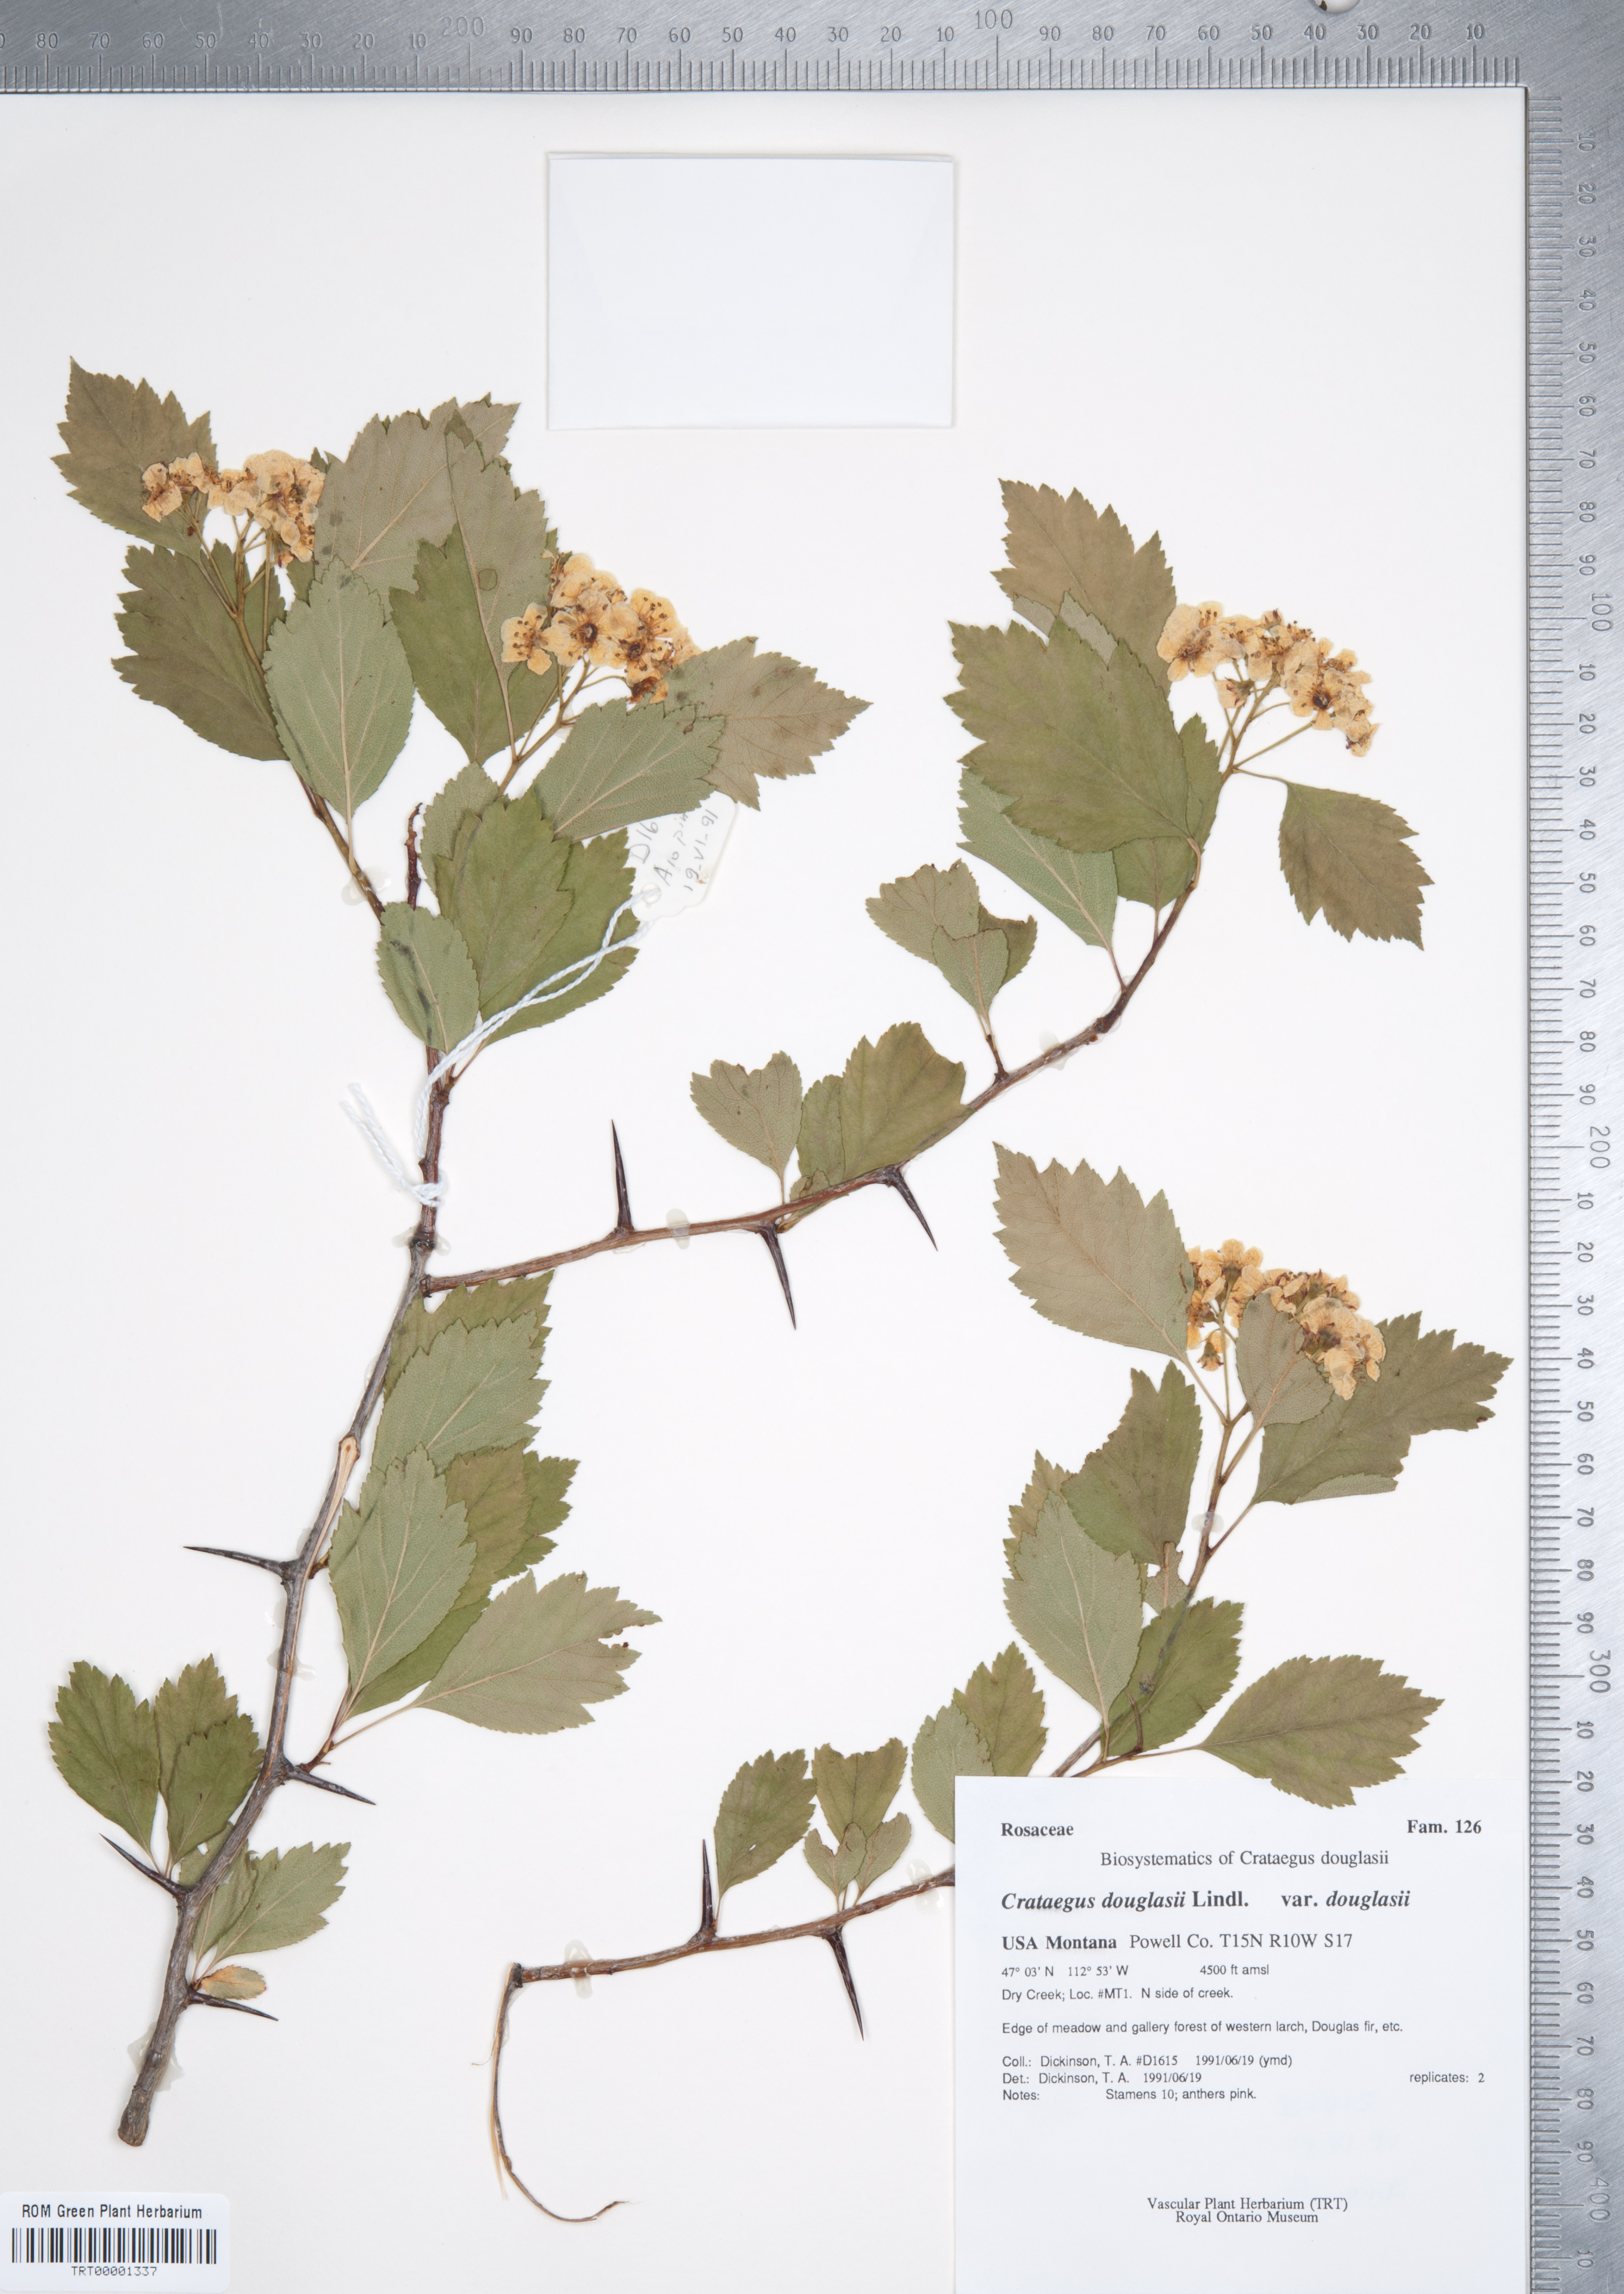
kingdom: Plantae
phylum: Tracheophyta
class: Magnoliopsida
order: Rosales
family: Rosaceae
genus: Crataegus
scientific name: Crataegus douglasii
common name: Black hawthorn
